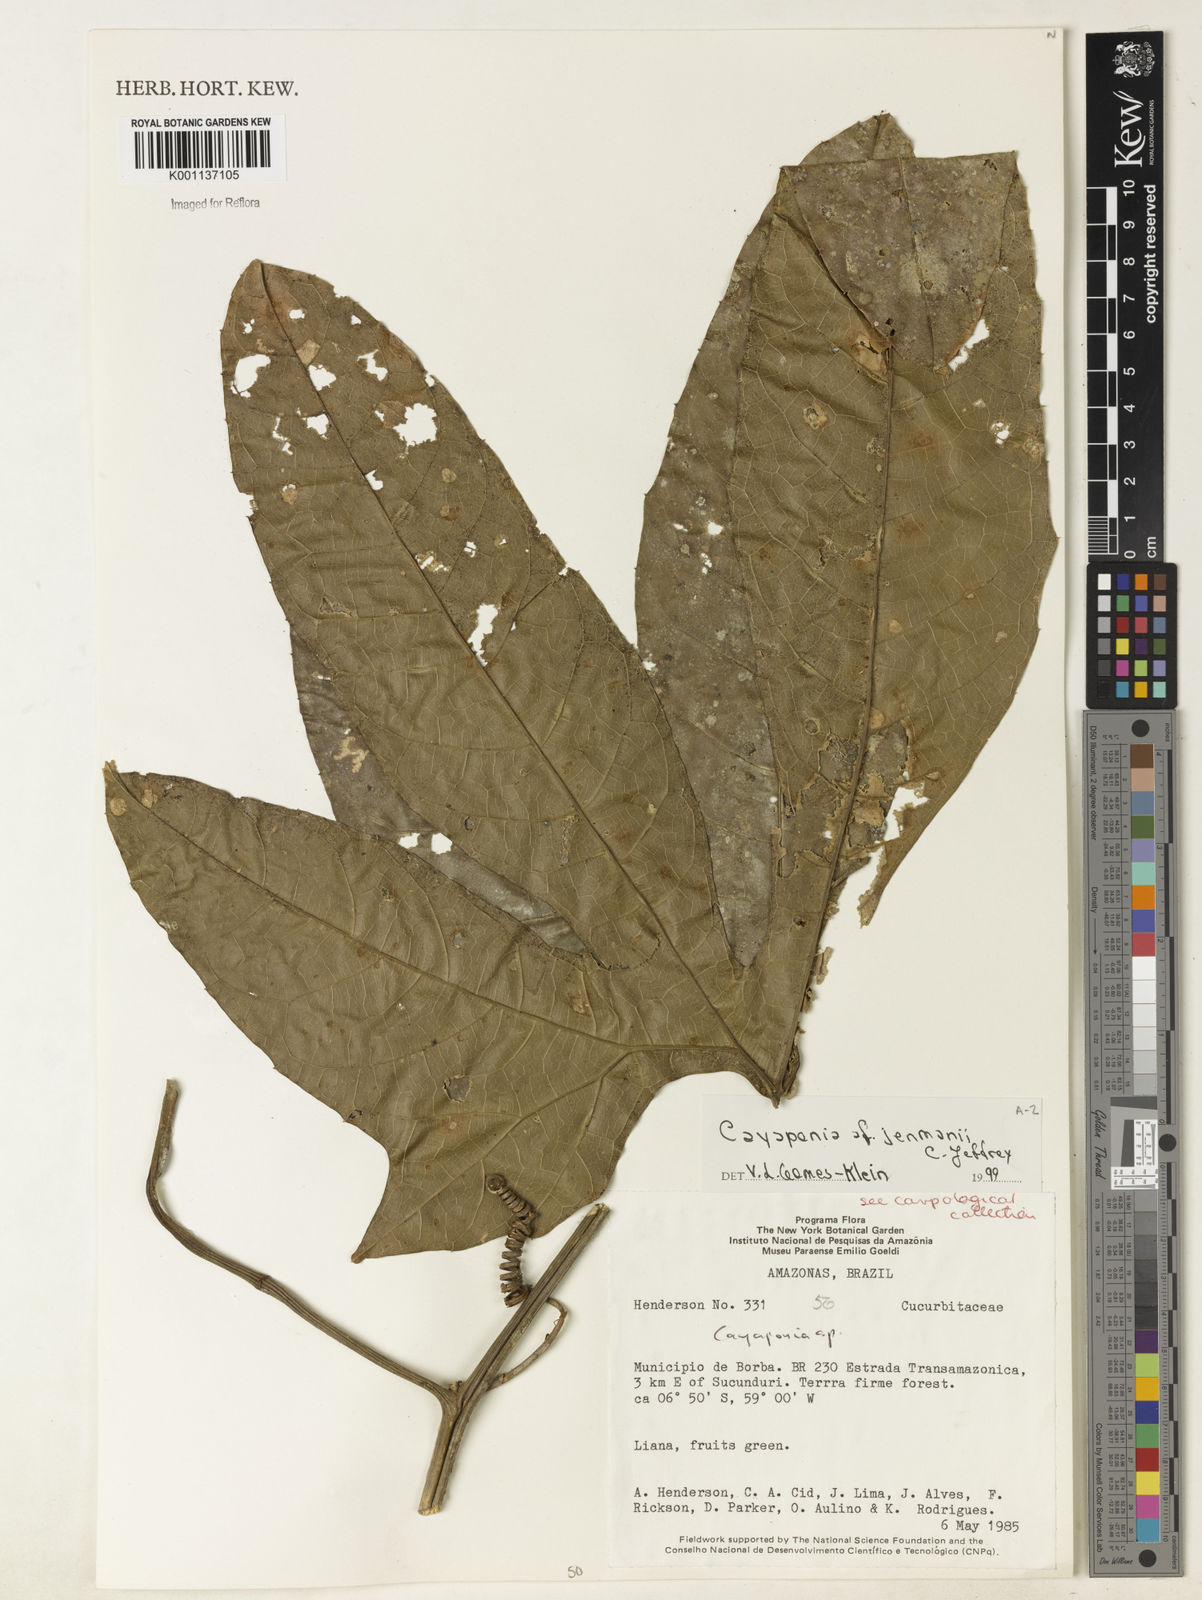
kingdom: Plantae
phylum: Tracheophyta
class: Magnoliopsida
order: Cucurbitales
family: Cucurbitaceae
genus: Cayaponia
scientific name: Cayaponia jenmanii
